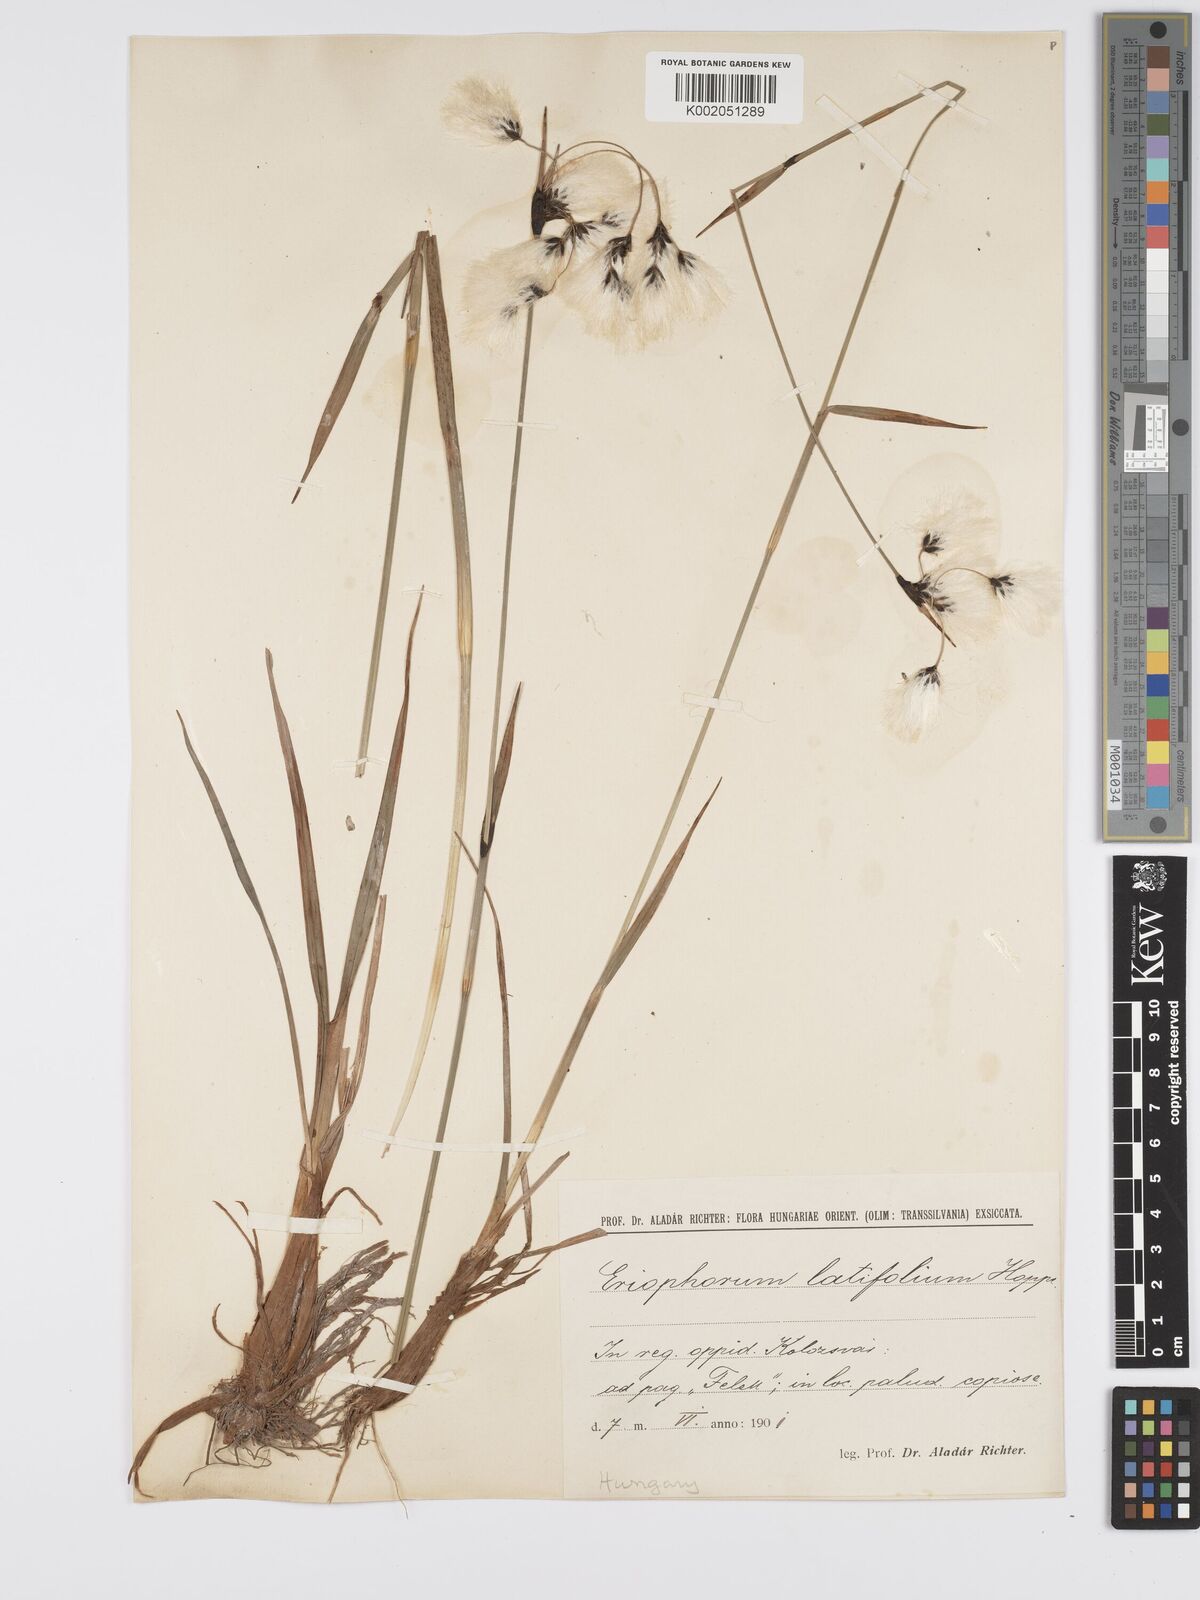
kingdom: Plantae
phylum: Tracheophyta
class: Liliopsida
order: Poales
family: Cyperaceae
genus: Eriophorum
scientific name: Eriophorum latifolium
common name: Broad-leaved cottongrass
